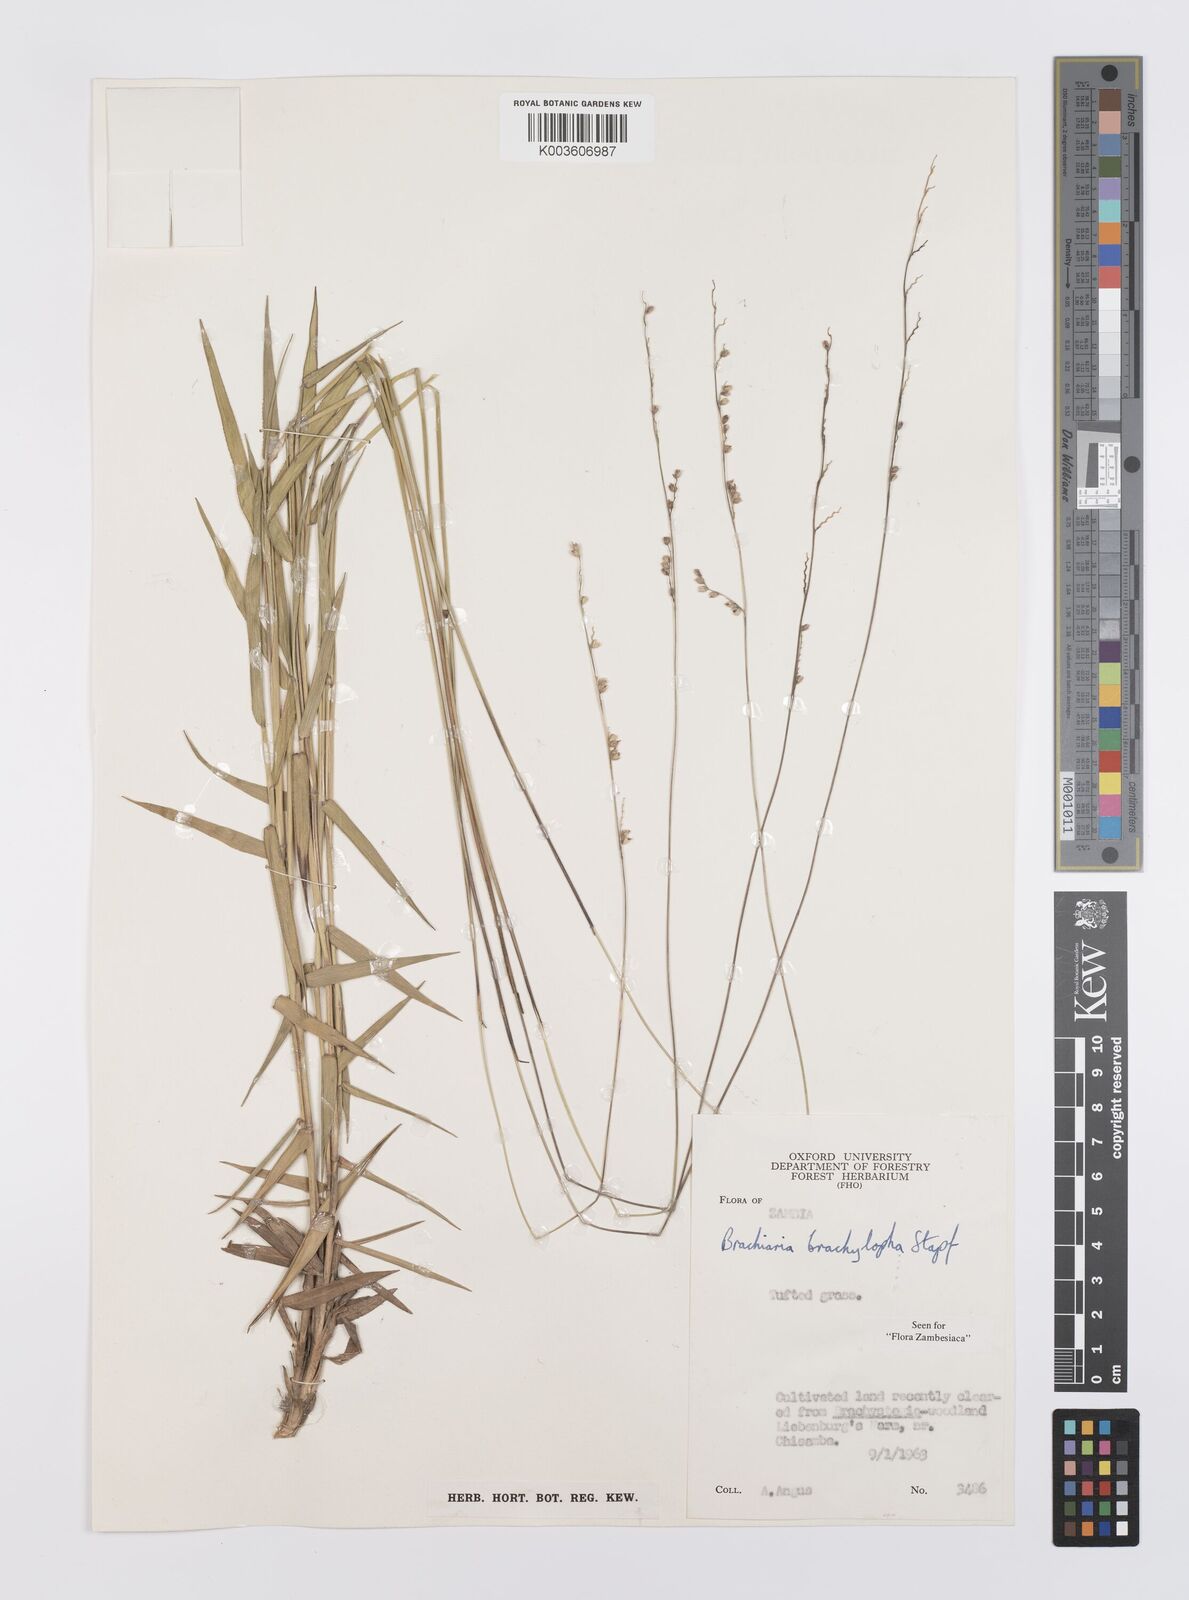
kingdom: Plantae
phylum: Tracheophyta
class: Liliopsida
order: Poales
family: Poaceae
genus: Urochloa
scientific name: Urochloa serrata
